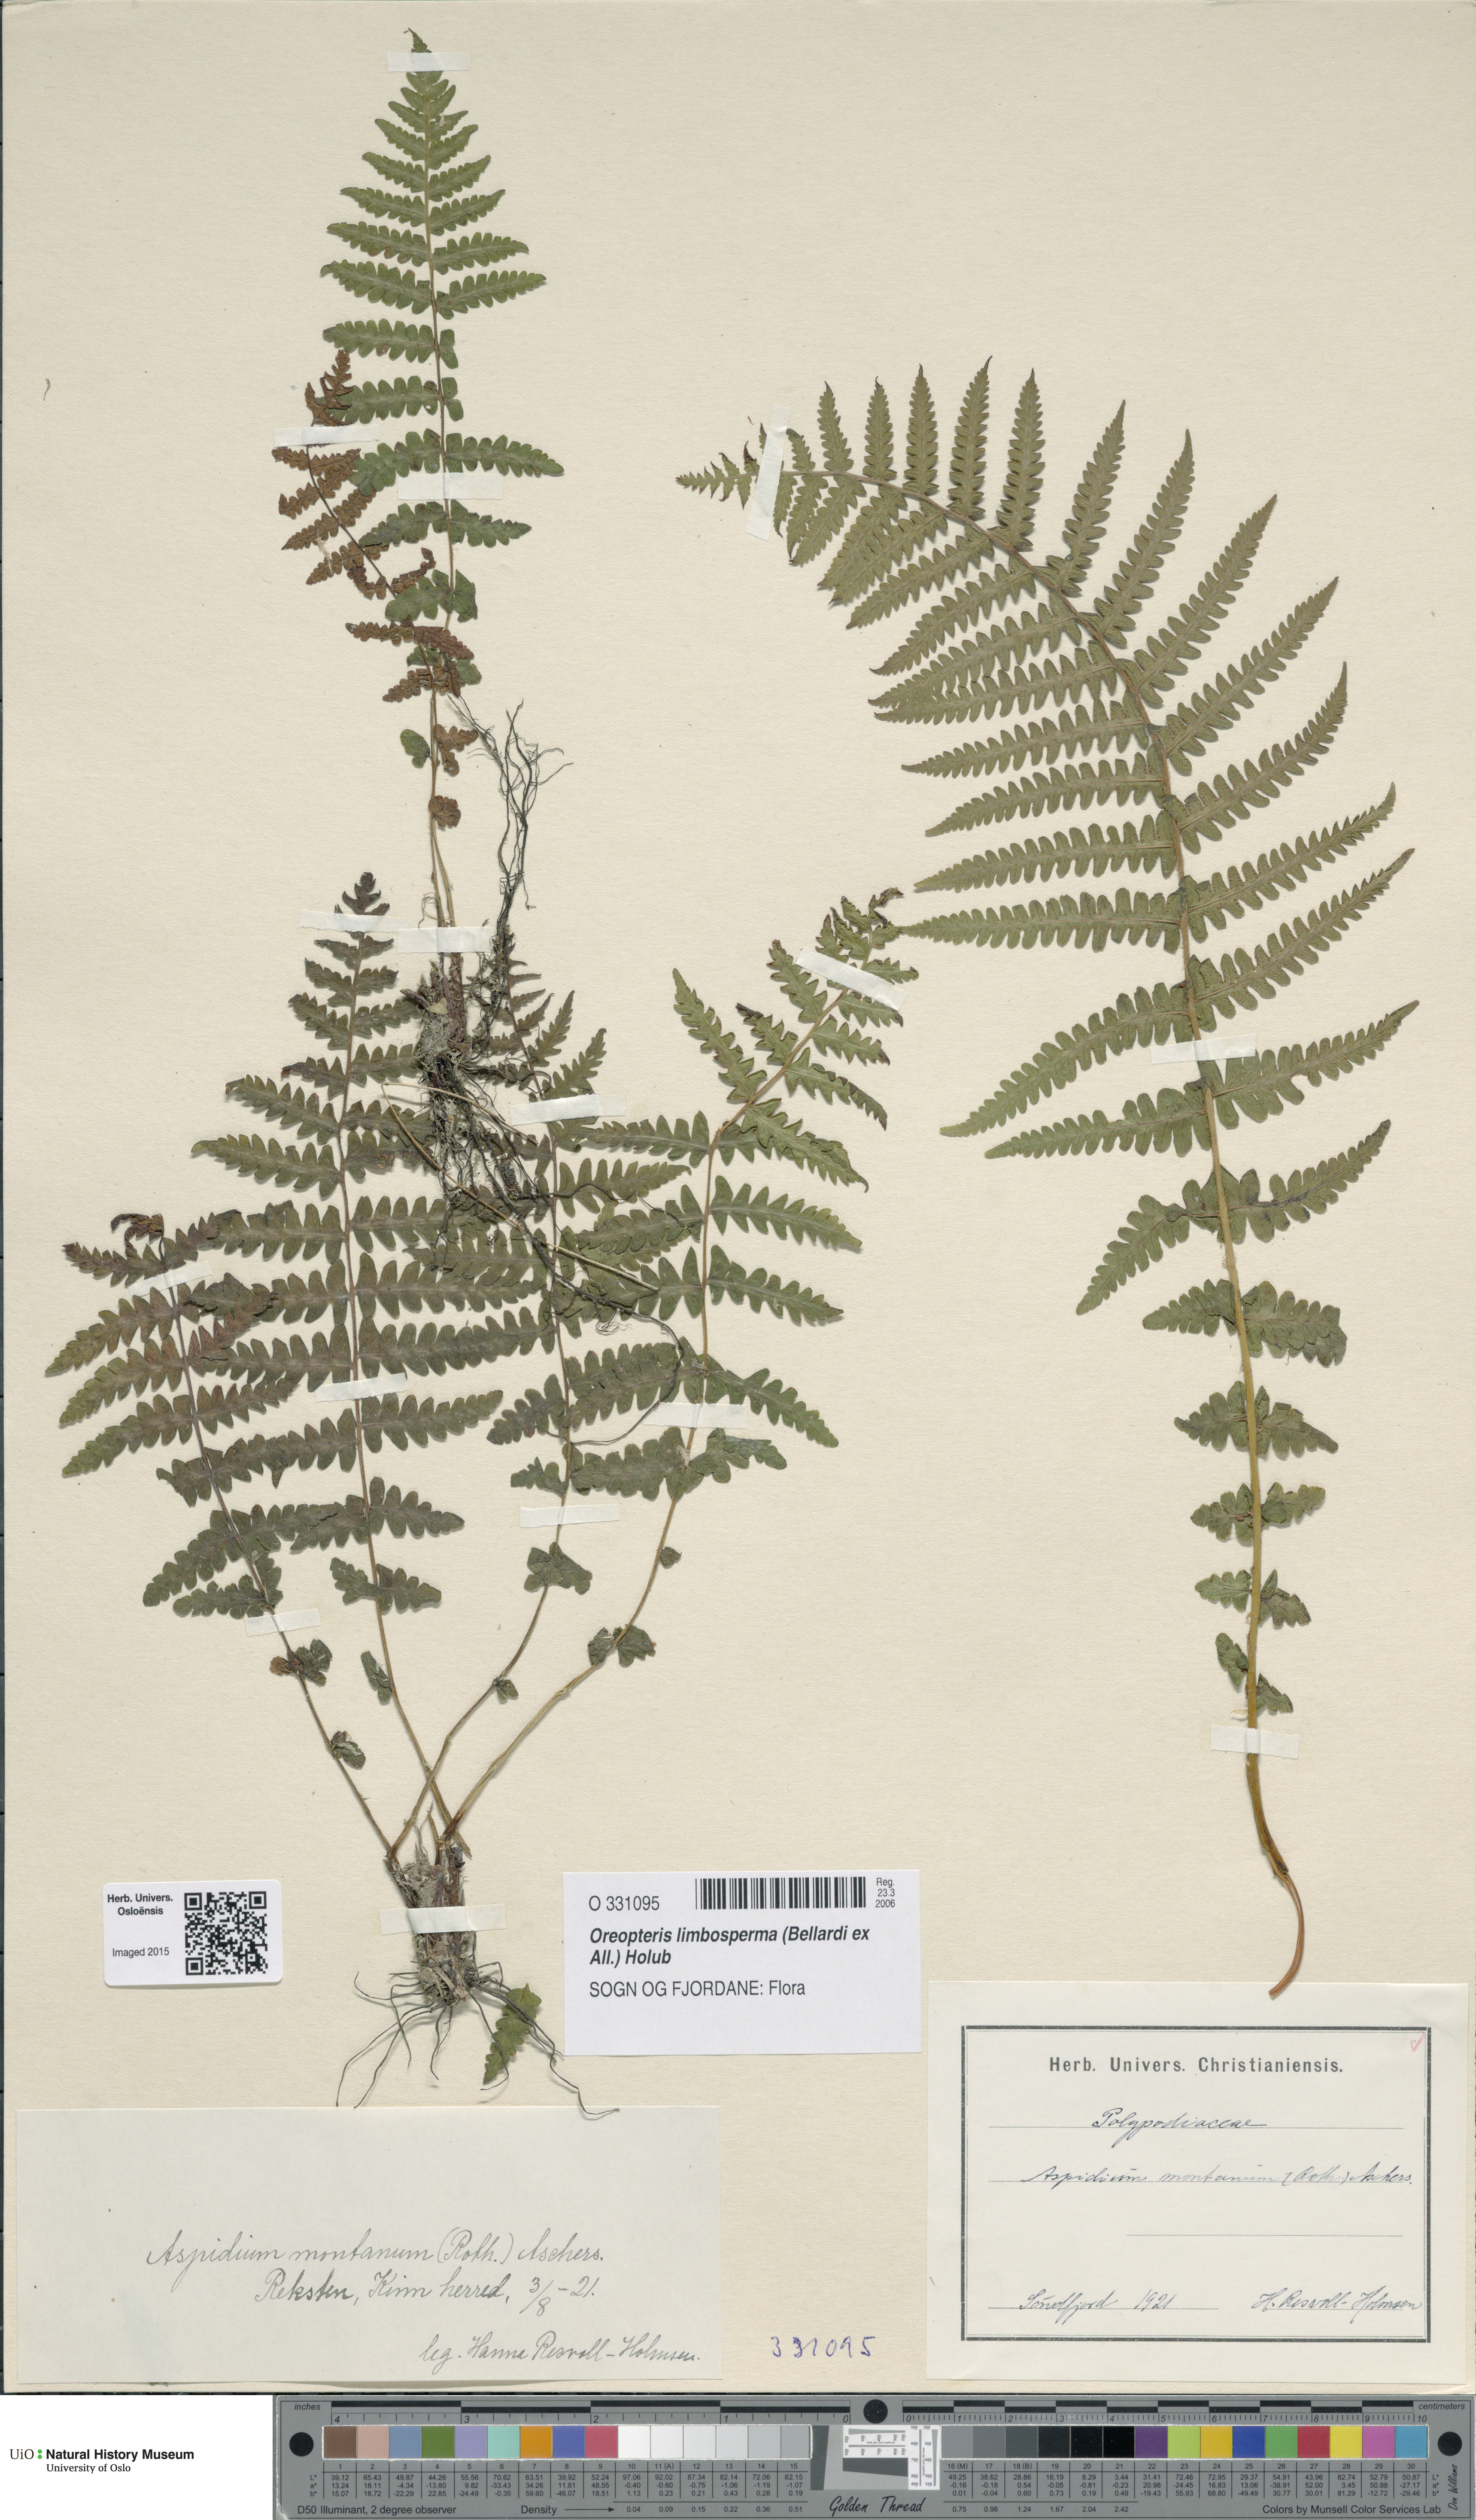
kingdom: Plantae
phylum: Tracheophyta
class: Polypodiopsida
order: Polypodiales
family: Thelypteridaceae
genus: Oreopteris
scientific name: Oreopteris limbosperma
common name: Lemon-scented fern
